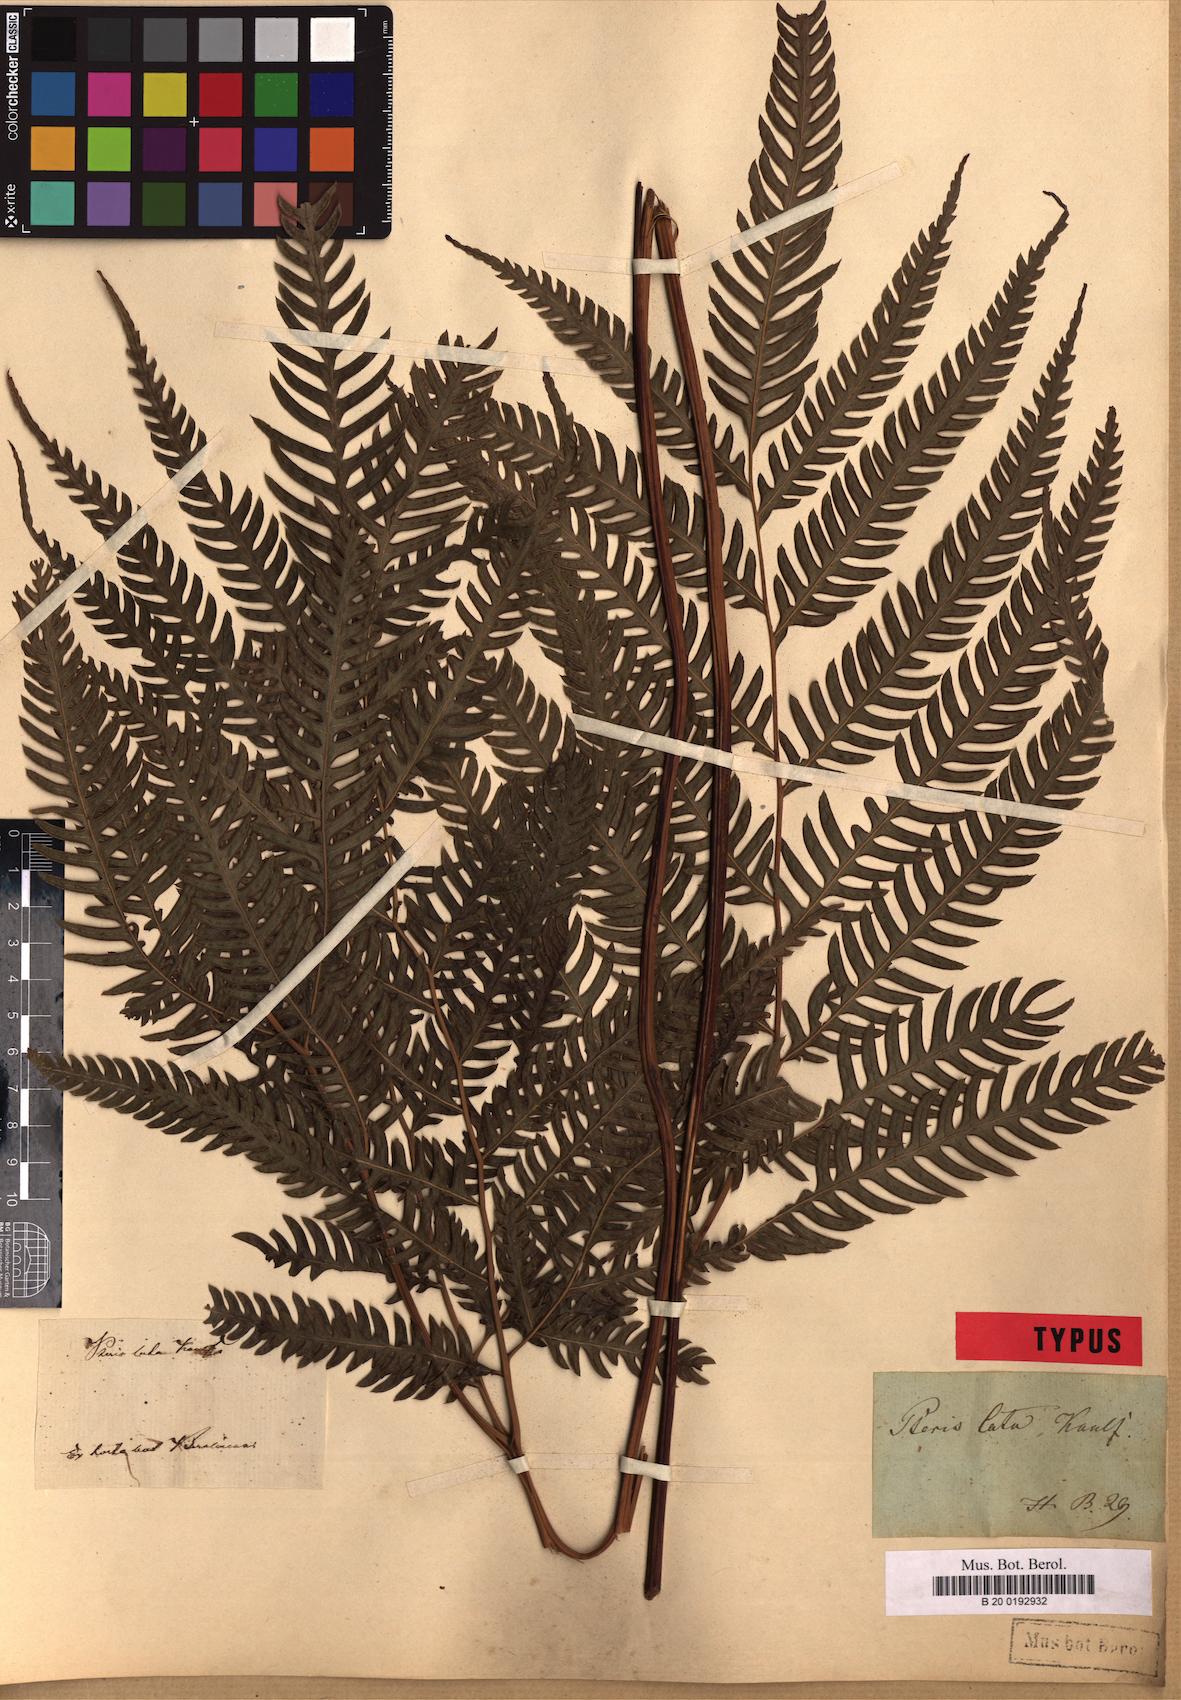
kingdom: Plantae
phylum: Tracheophyta
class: Polypodiopsida
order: Polypodiales
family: Pteridaceae
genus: Pteris
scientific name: Pteris altissima
